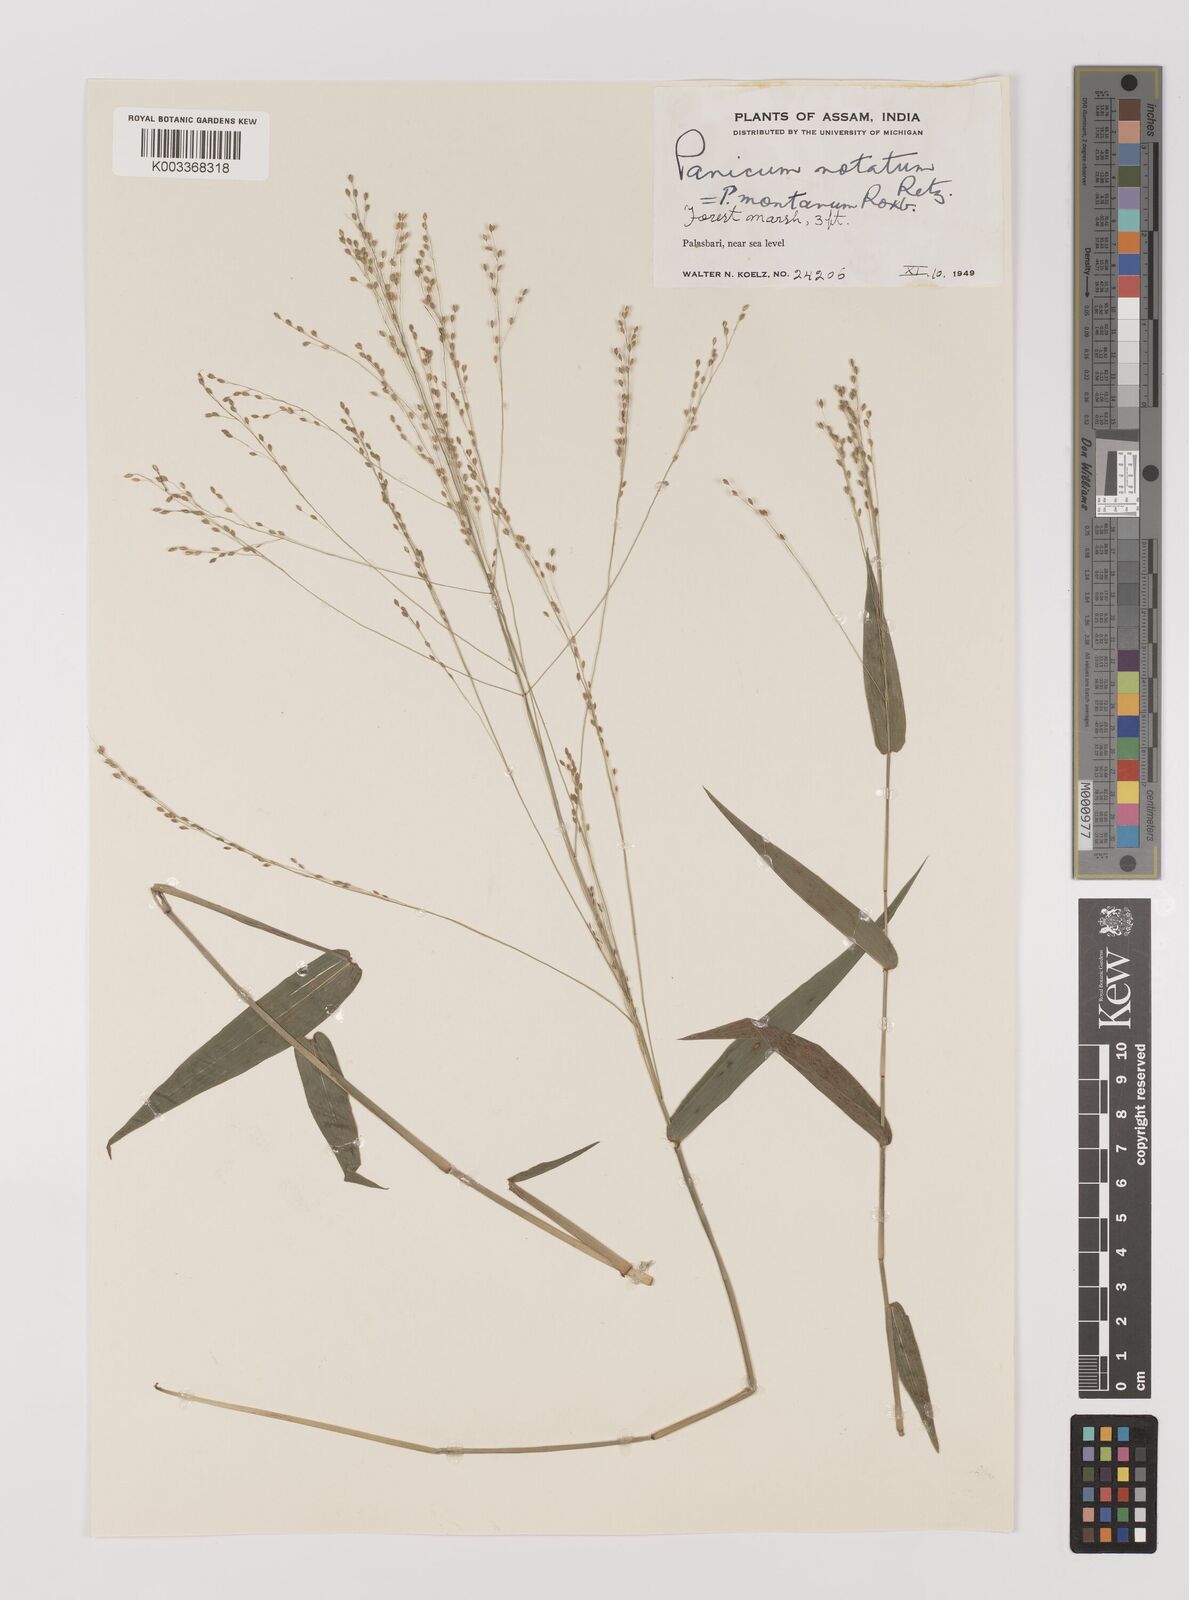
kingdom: Plantae
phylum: Tracheophyta
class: Liliopsida
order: Poales
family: Poaceae
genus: Panicum
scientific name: Panicum notatum
